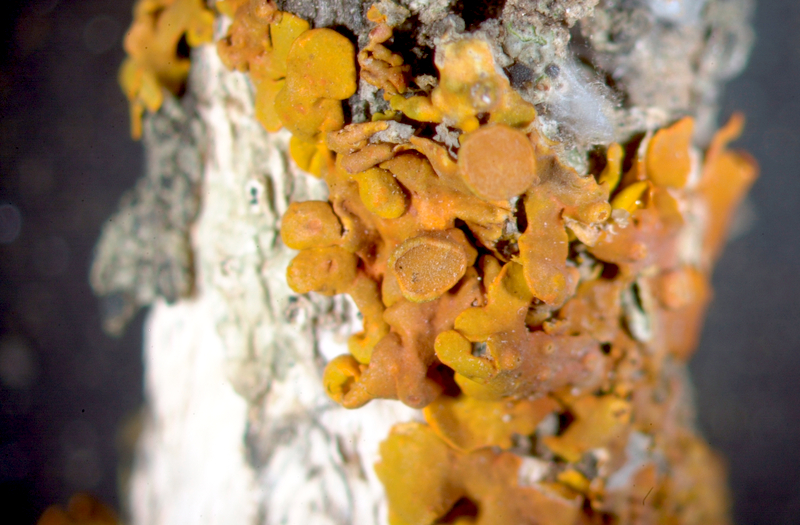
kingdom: Fungi
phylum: Ascomycota
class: Lecanoromycetes
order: Caliciales
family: Physciaceae
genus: Physcia
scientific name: Physcia adscendens
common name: Hooded rosette lichen
